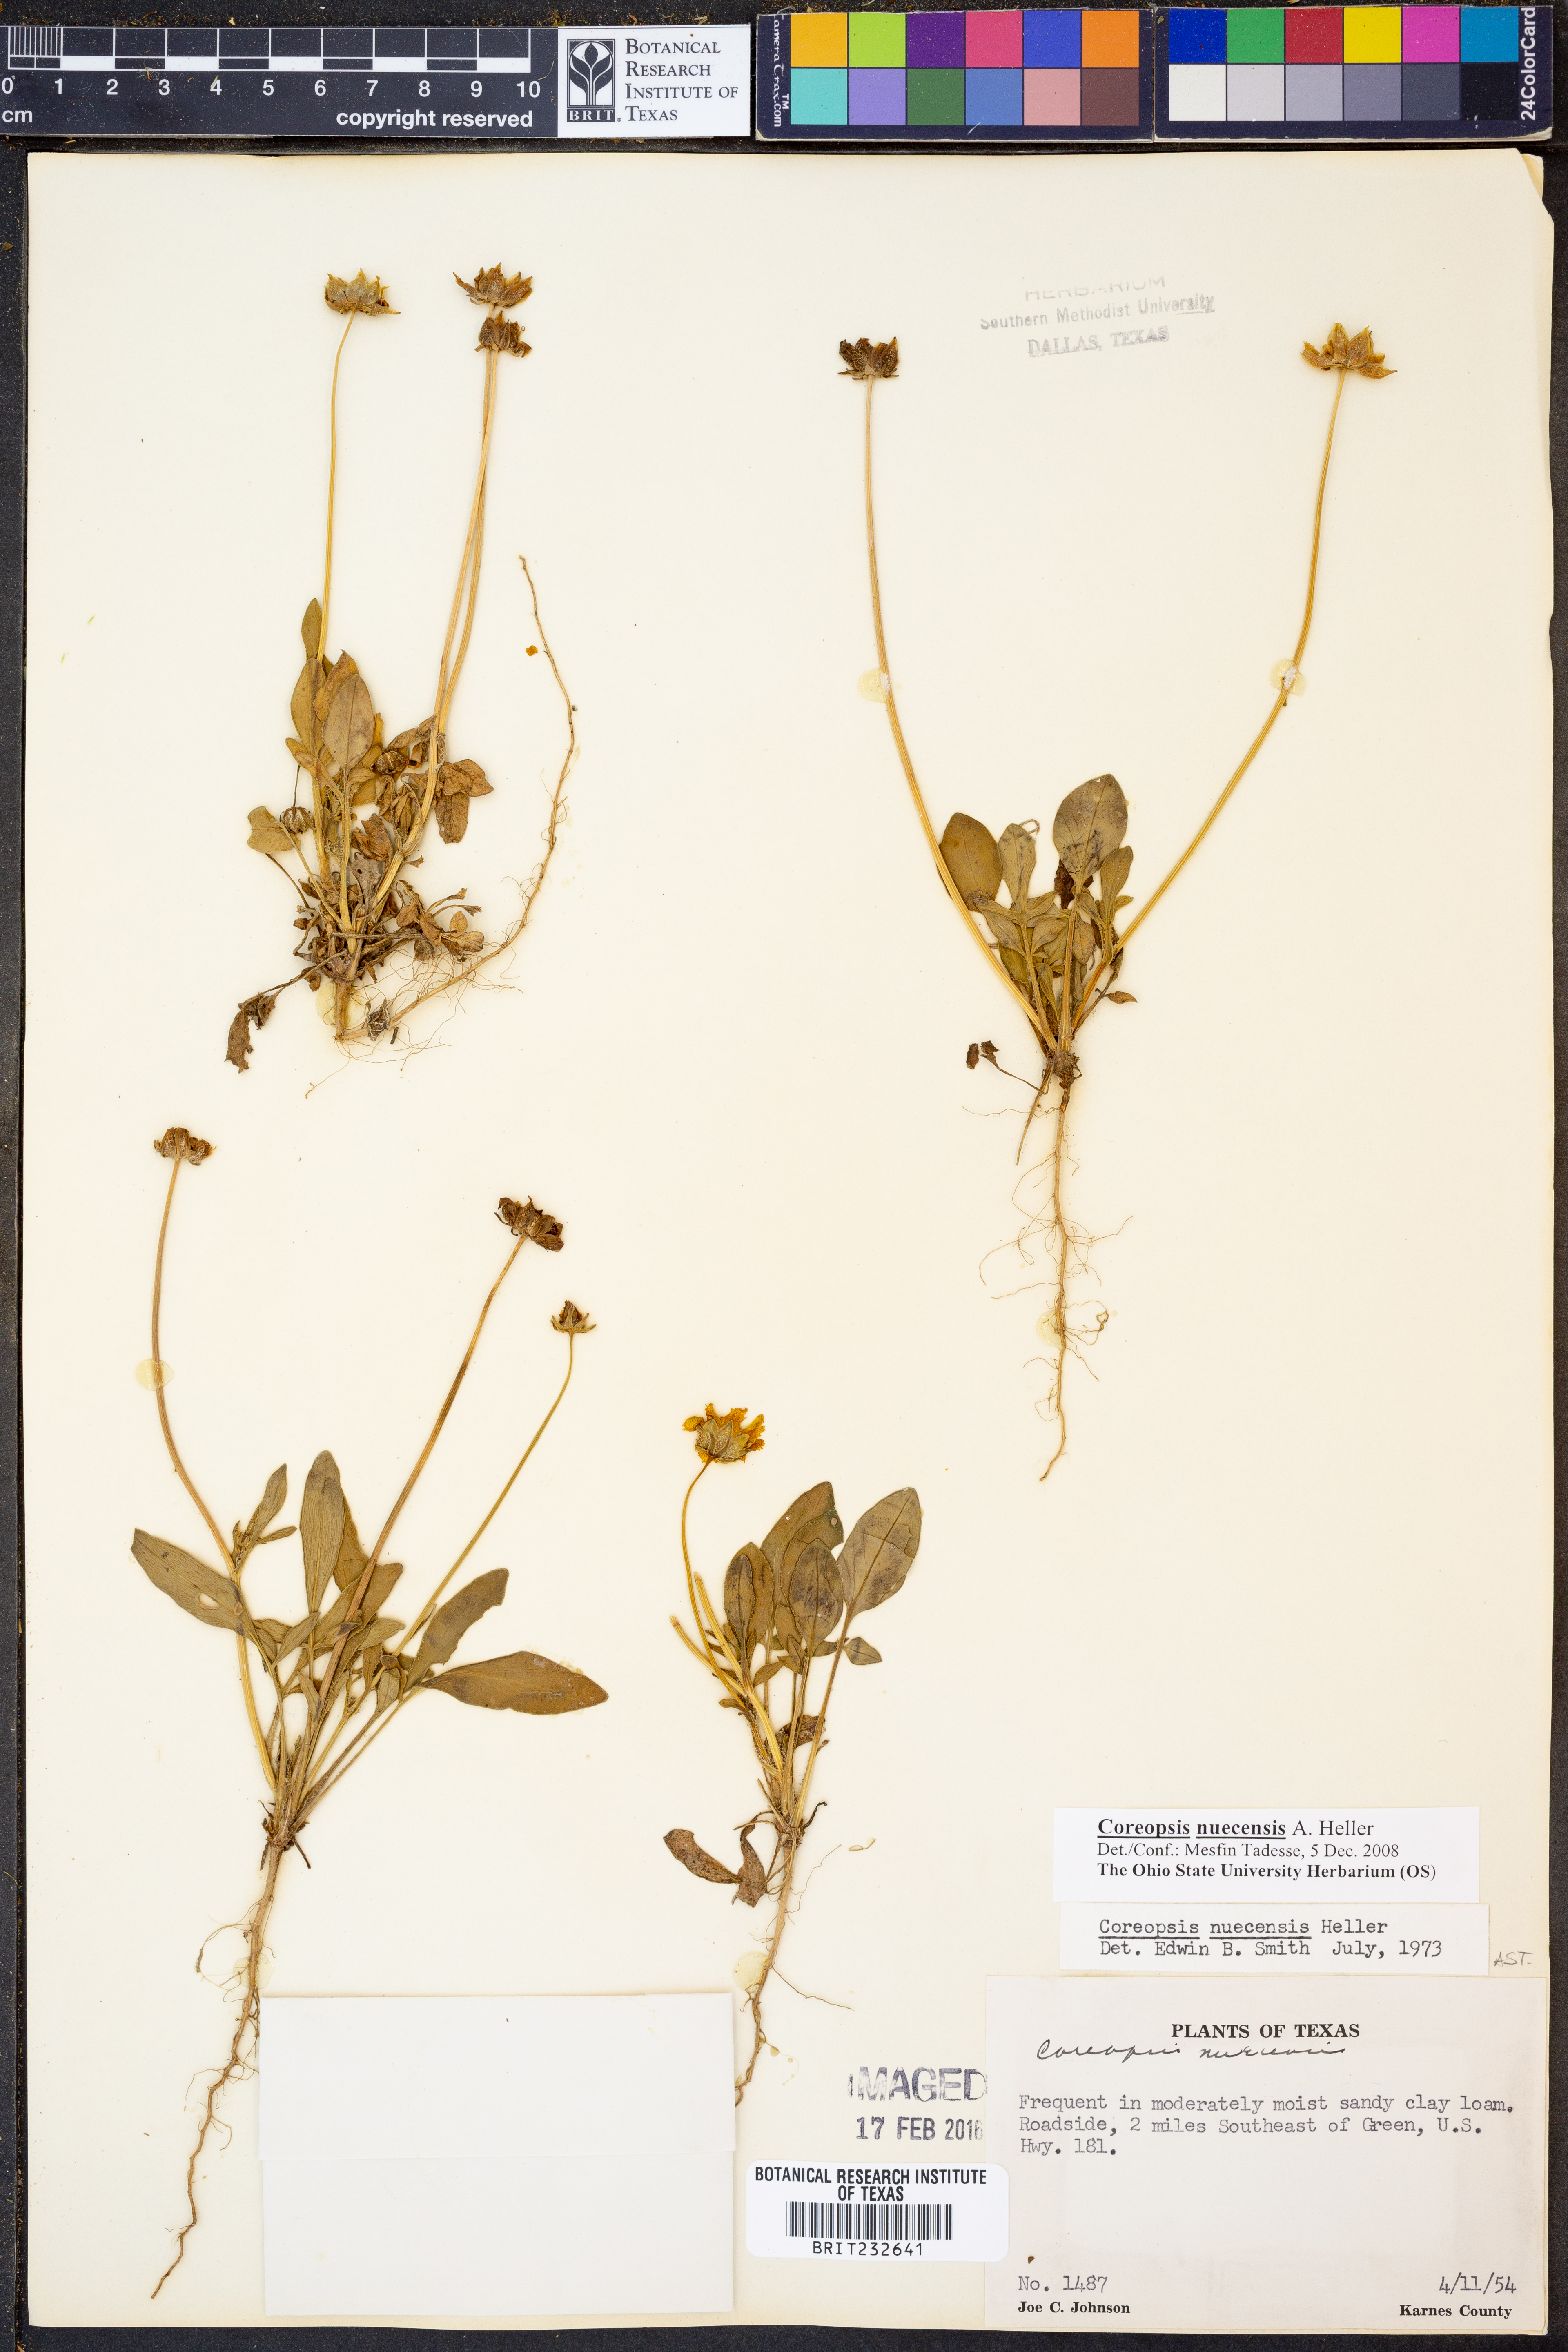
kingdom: Plantae
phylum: Tracheophyta
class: Magnoliopsida
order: Asterales
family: Asteraceae
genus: Coreopsis
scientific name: Coreopsis nuecensis
